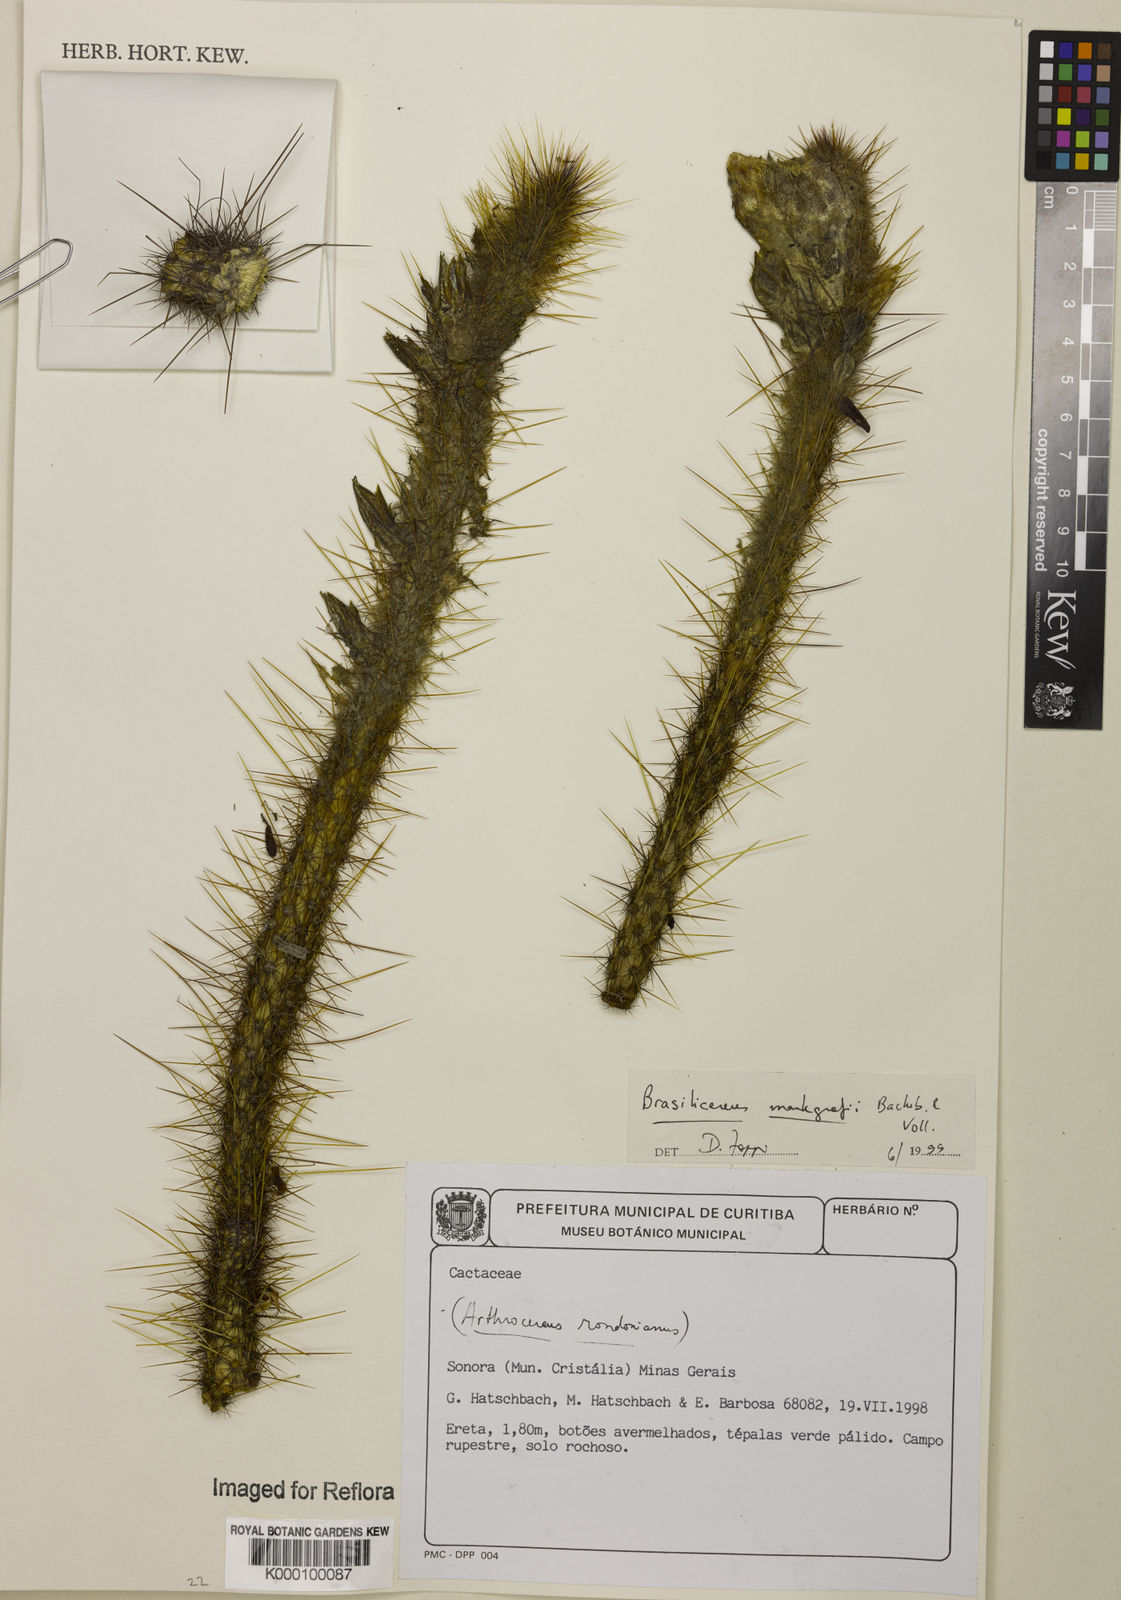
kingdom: Plantae
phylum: Tracheophyta
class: Magnoliopsida
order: Caryophyllales
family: Cactaceae
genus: Brasilicereus
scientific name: Brasilicereus markgrafii
